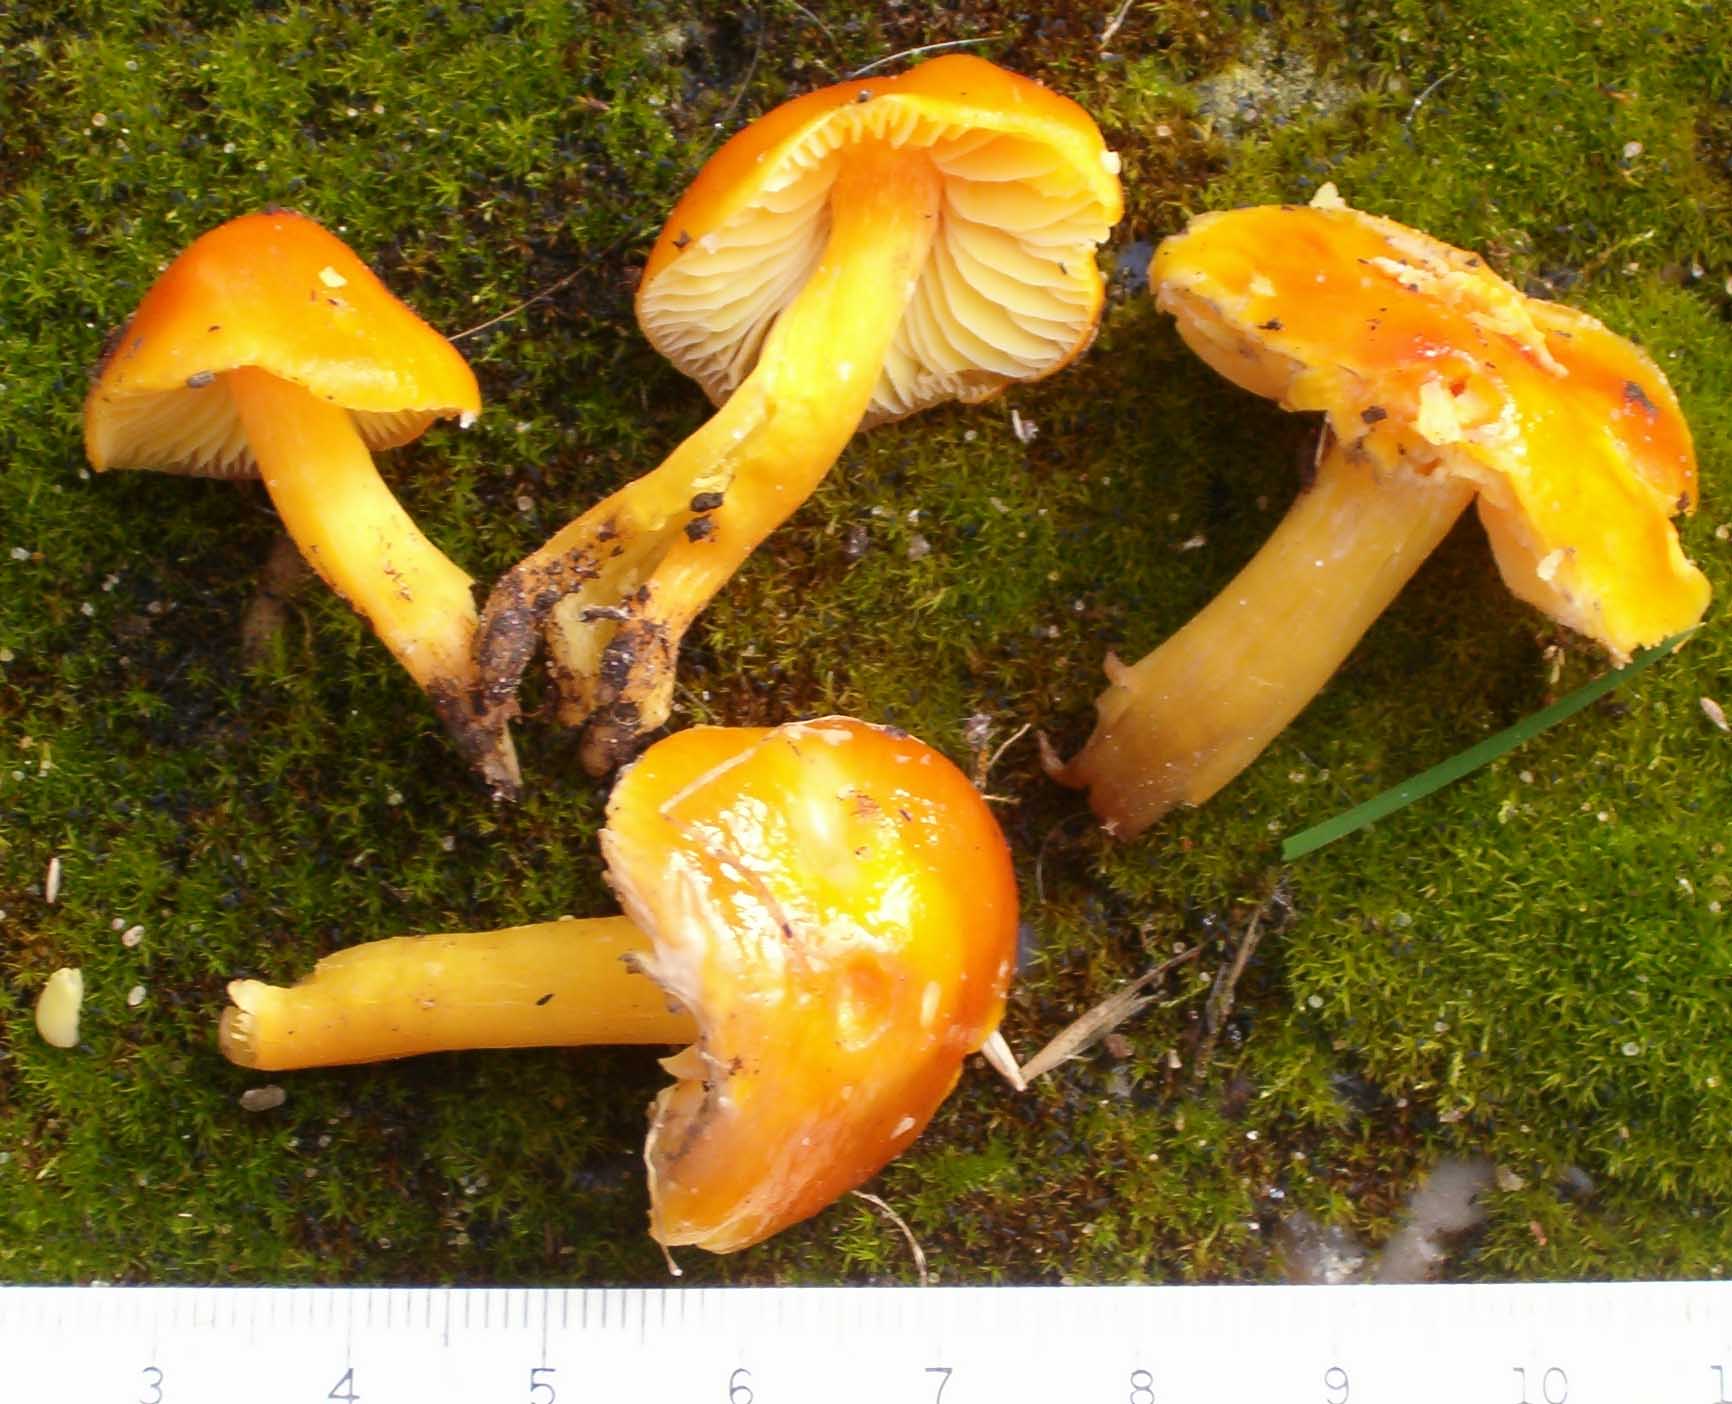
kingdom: Fungi
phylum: Basidiomycota
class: Agaricomycetes
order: Agaricales
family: Hygrophoraceae
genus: Hygrocybe
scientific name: Hygrocybe aurantiosplendens
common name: orangegylden vokshat
